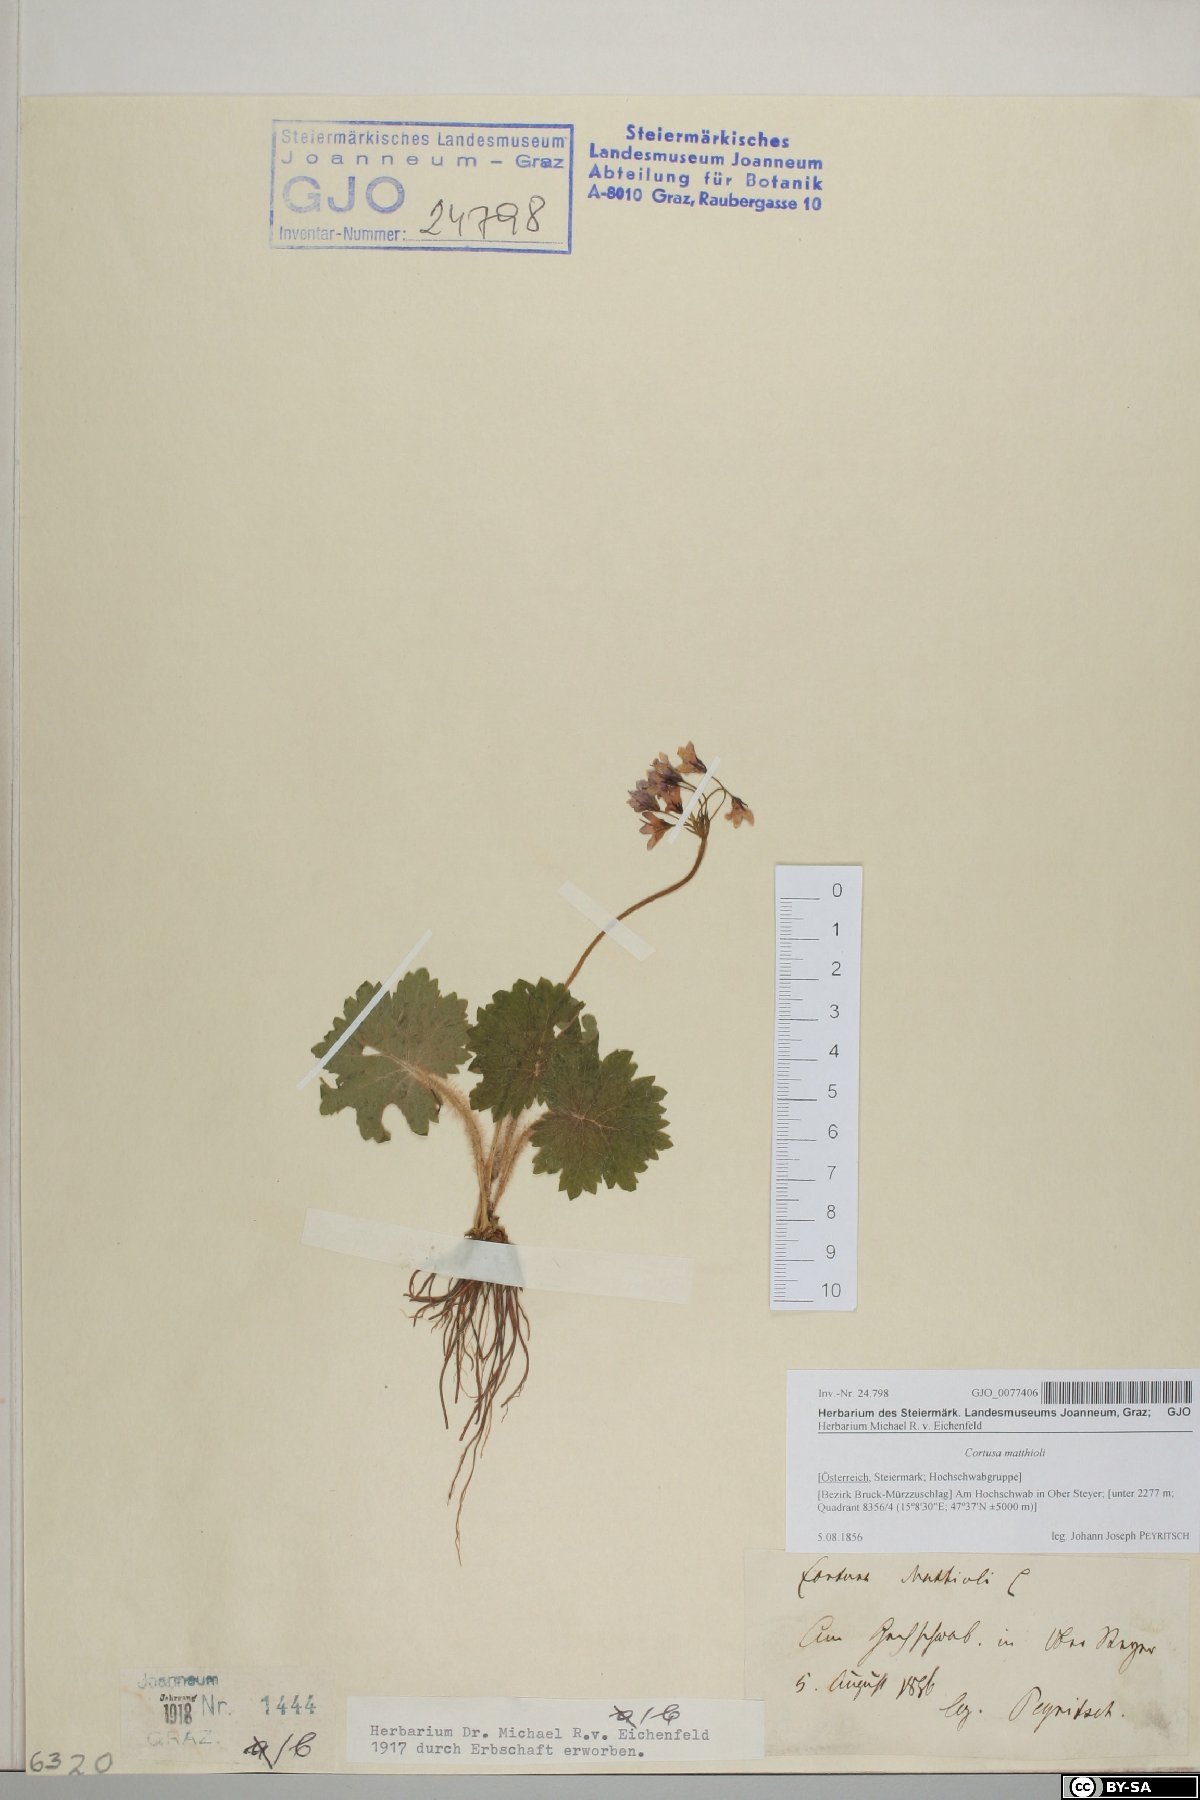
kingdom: Plantae
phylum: Tracheophyta
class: Magnoliopsida
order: Ericales
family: Primulaceae
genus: Primula
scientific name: Primula matthioli
